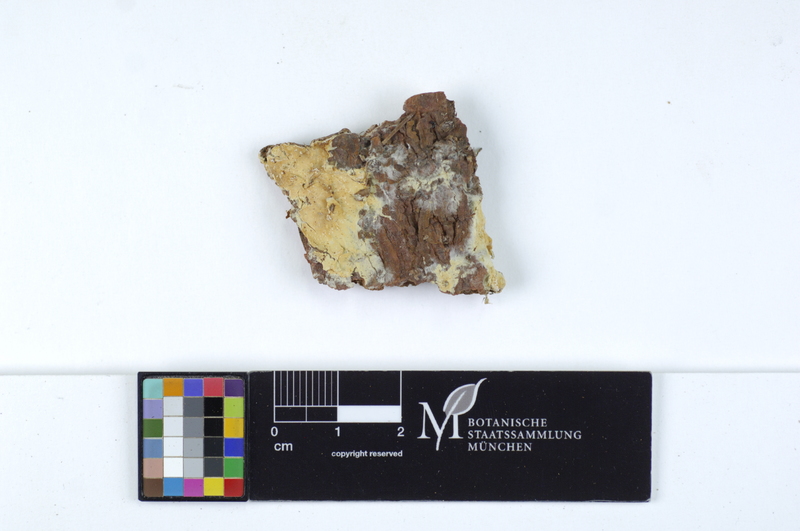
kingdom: Plantae
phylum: Tracheophyta
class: Pinopsida
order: Pinales
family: Pinaceae
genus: Picea
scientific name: Picea
